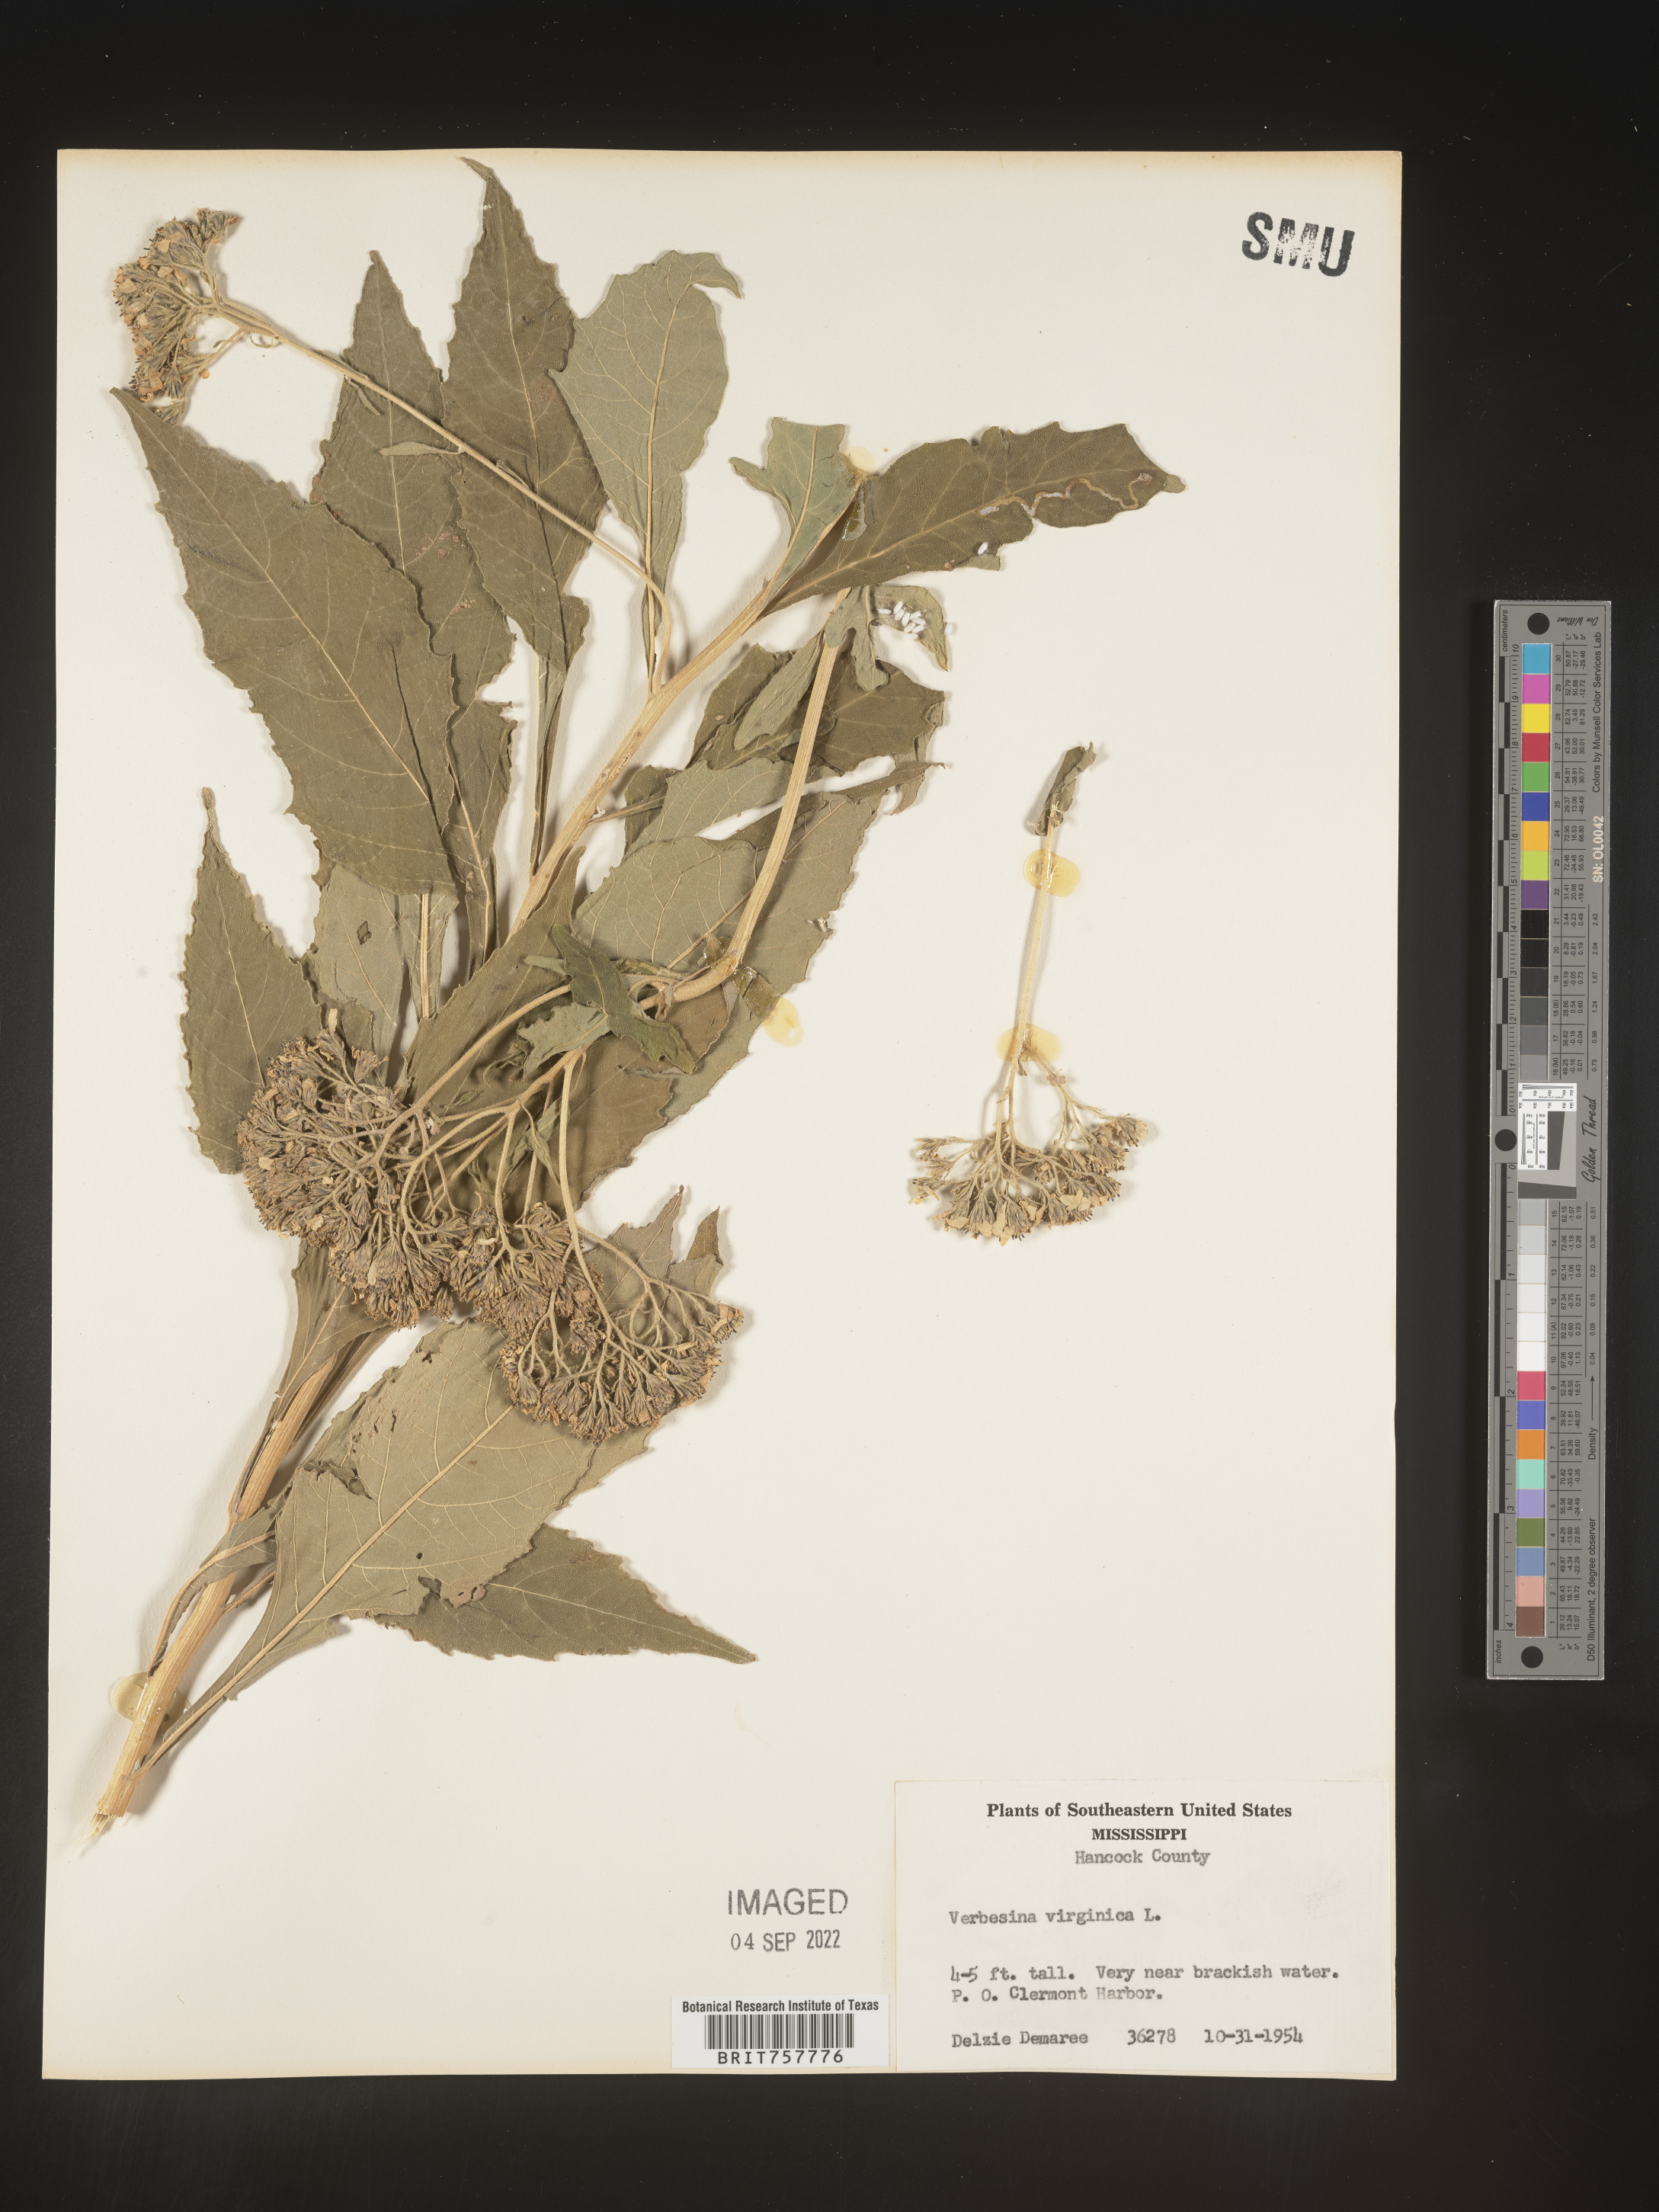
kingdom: Plantae
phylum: Tracheophyta
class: Magnoliopsida
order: Asterales
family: Asteraceae
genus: Verbesina
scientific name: Verbesina virginica
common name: Frostweed
